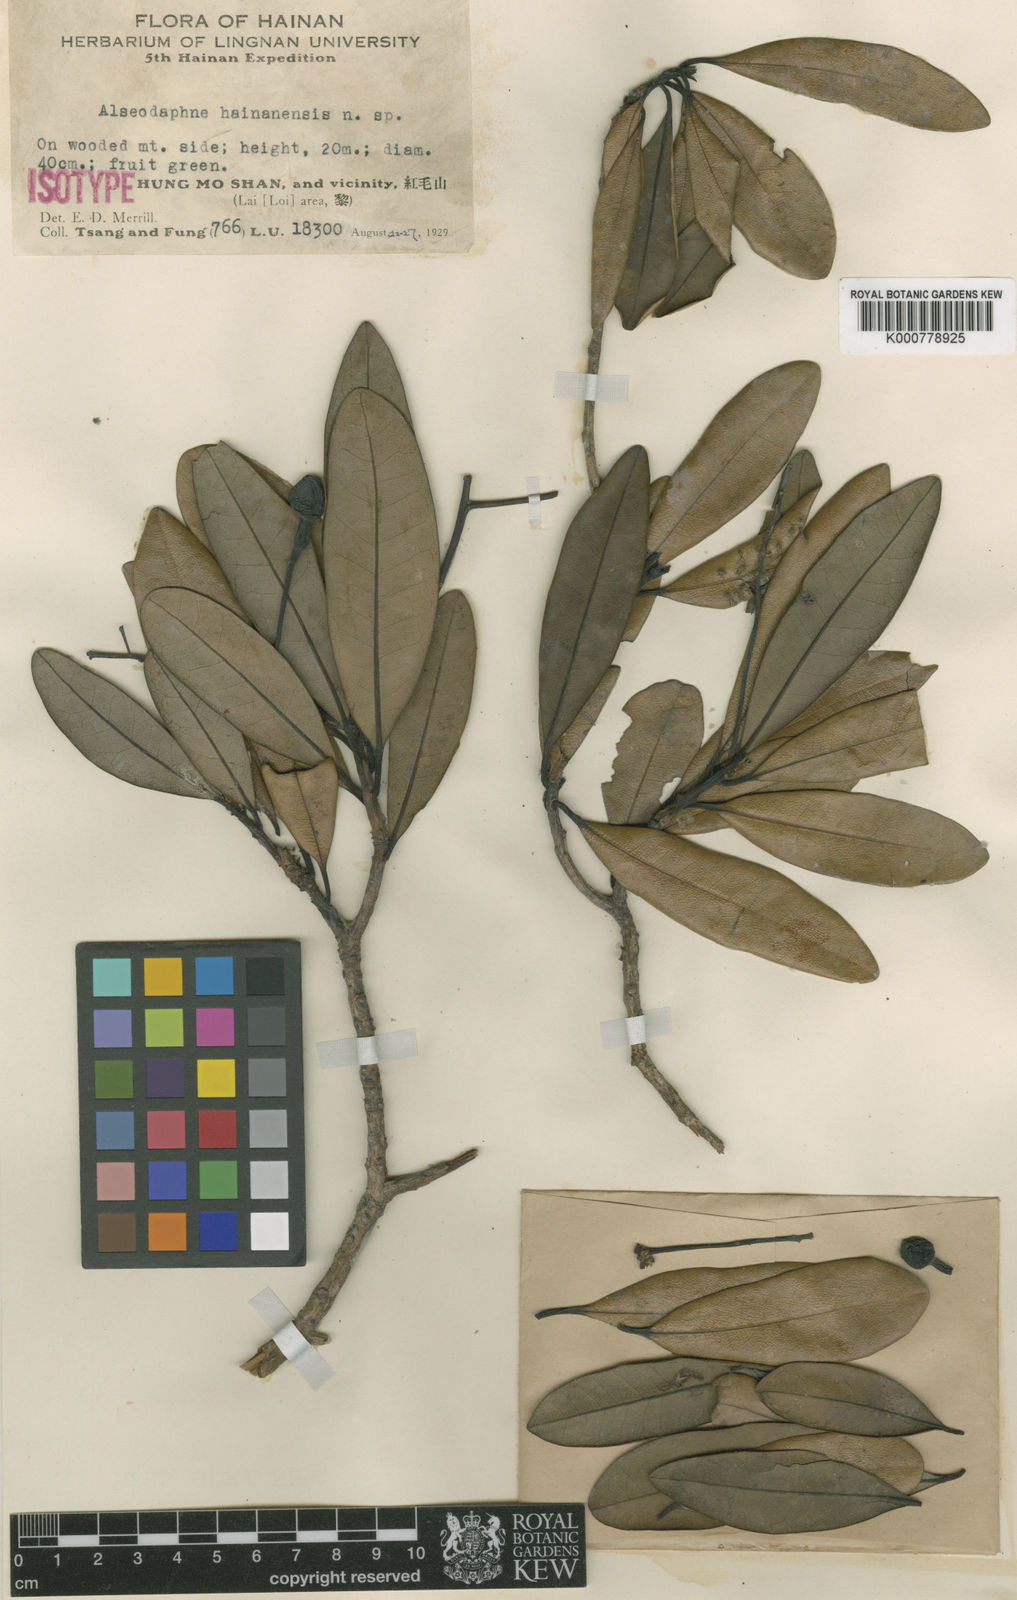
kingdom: Plantae
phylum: Tracheophyta
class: Magnoliopsida
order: Laurales
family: Lauraceae
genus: Alseodaphnopsis
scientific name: Alseodaphnopsis hainanensis
